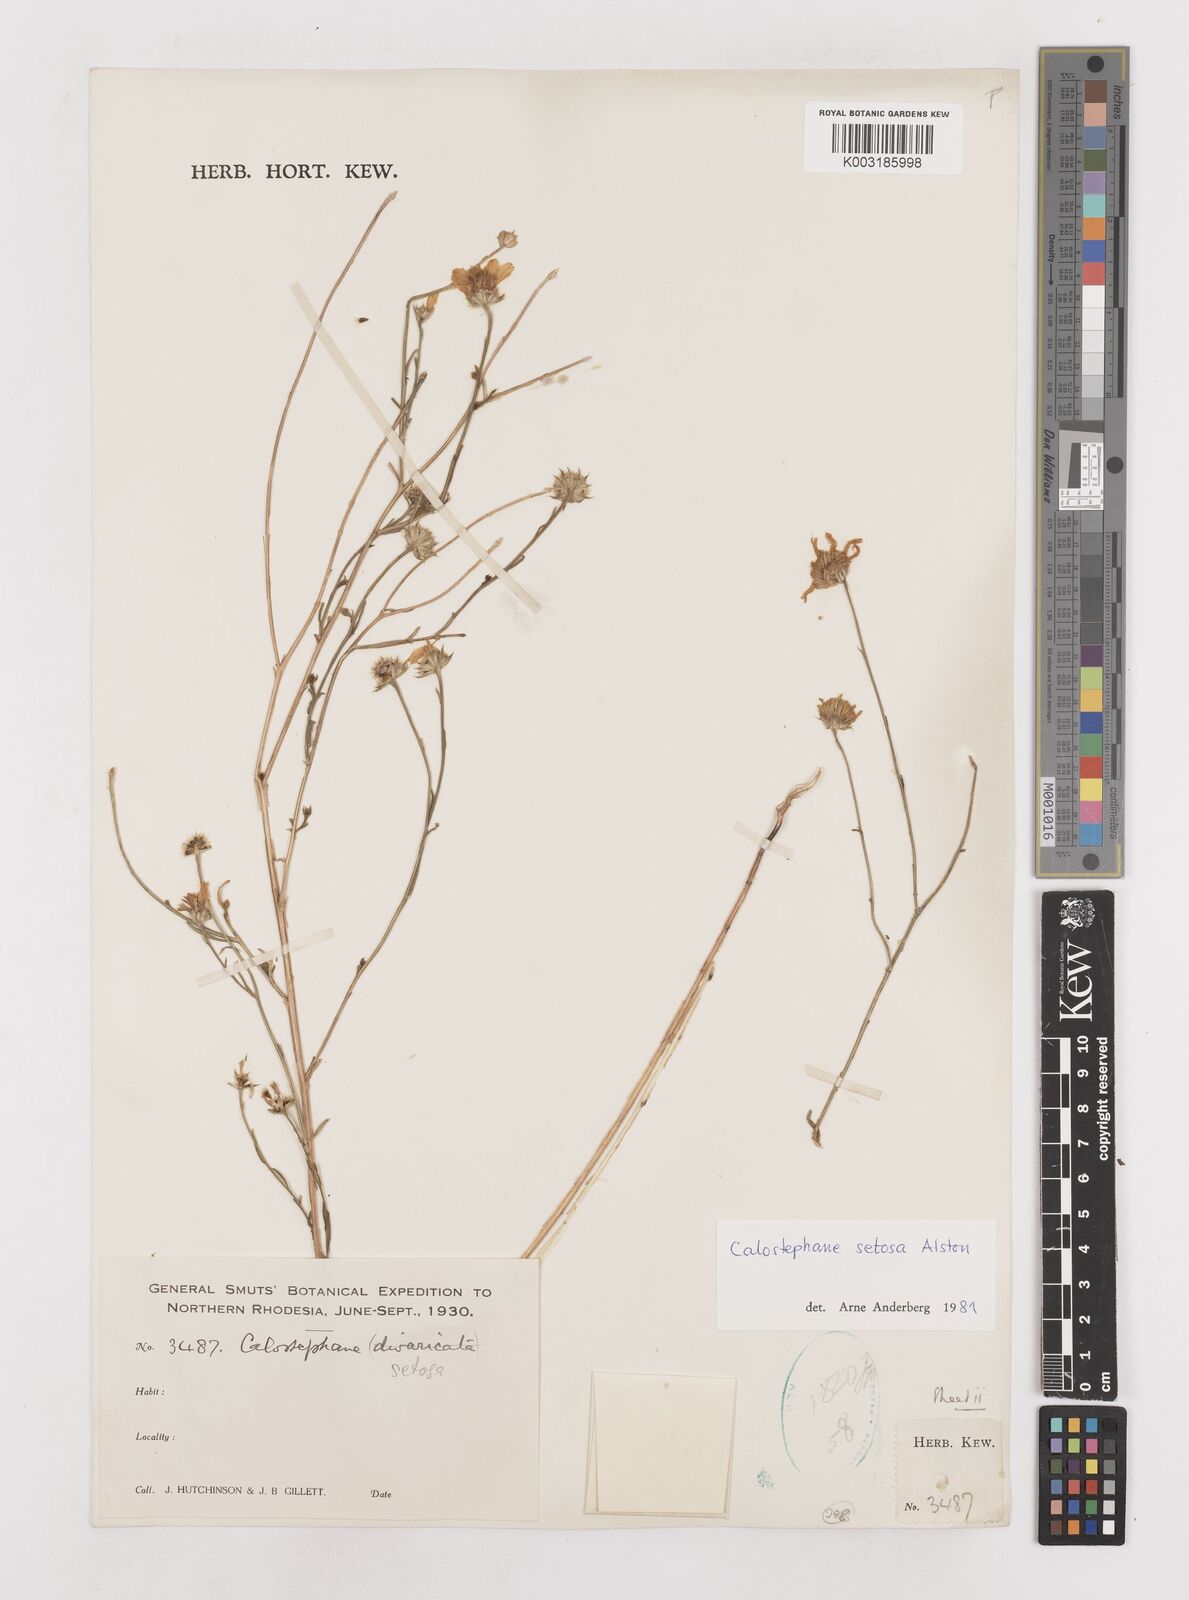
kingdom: Plantae
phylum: Tracheophyta
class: Magnoliopsida
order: Asterales
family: Asteraceae
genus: Calostephane
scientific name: Calostephane divaricata
